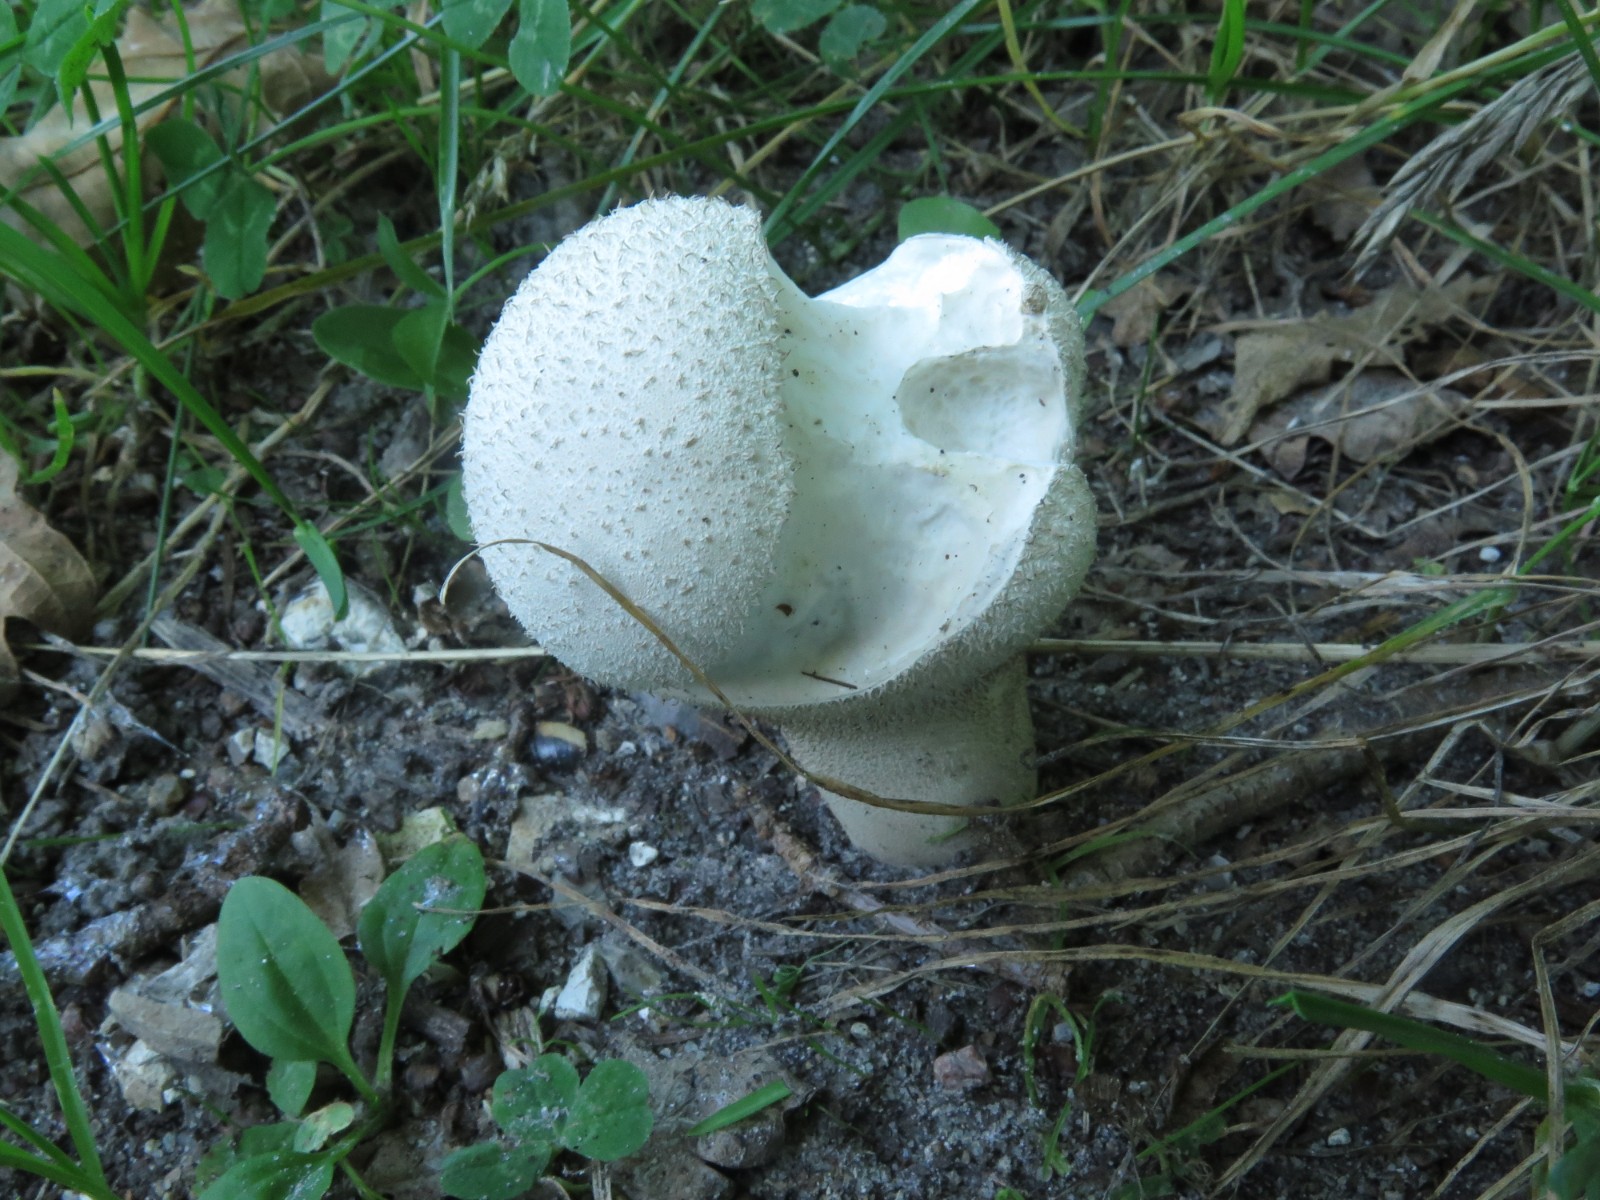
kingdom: Fungi
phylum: Basidiomycota
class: Agaricomycetes
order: Agaricales
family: Lycoperdaceae
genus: Lycoperdon
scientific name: Lycoperdon excipuliforme
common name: højstokket støvbold
